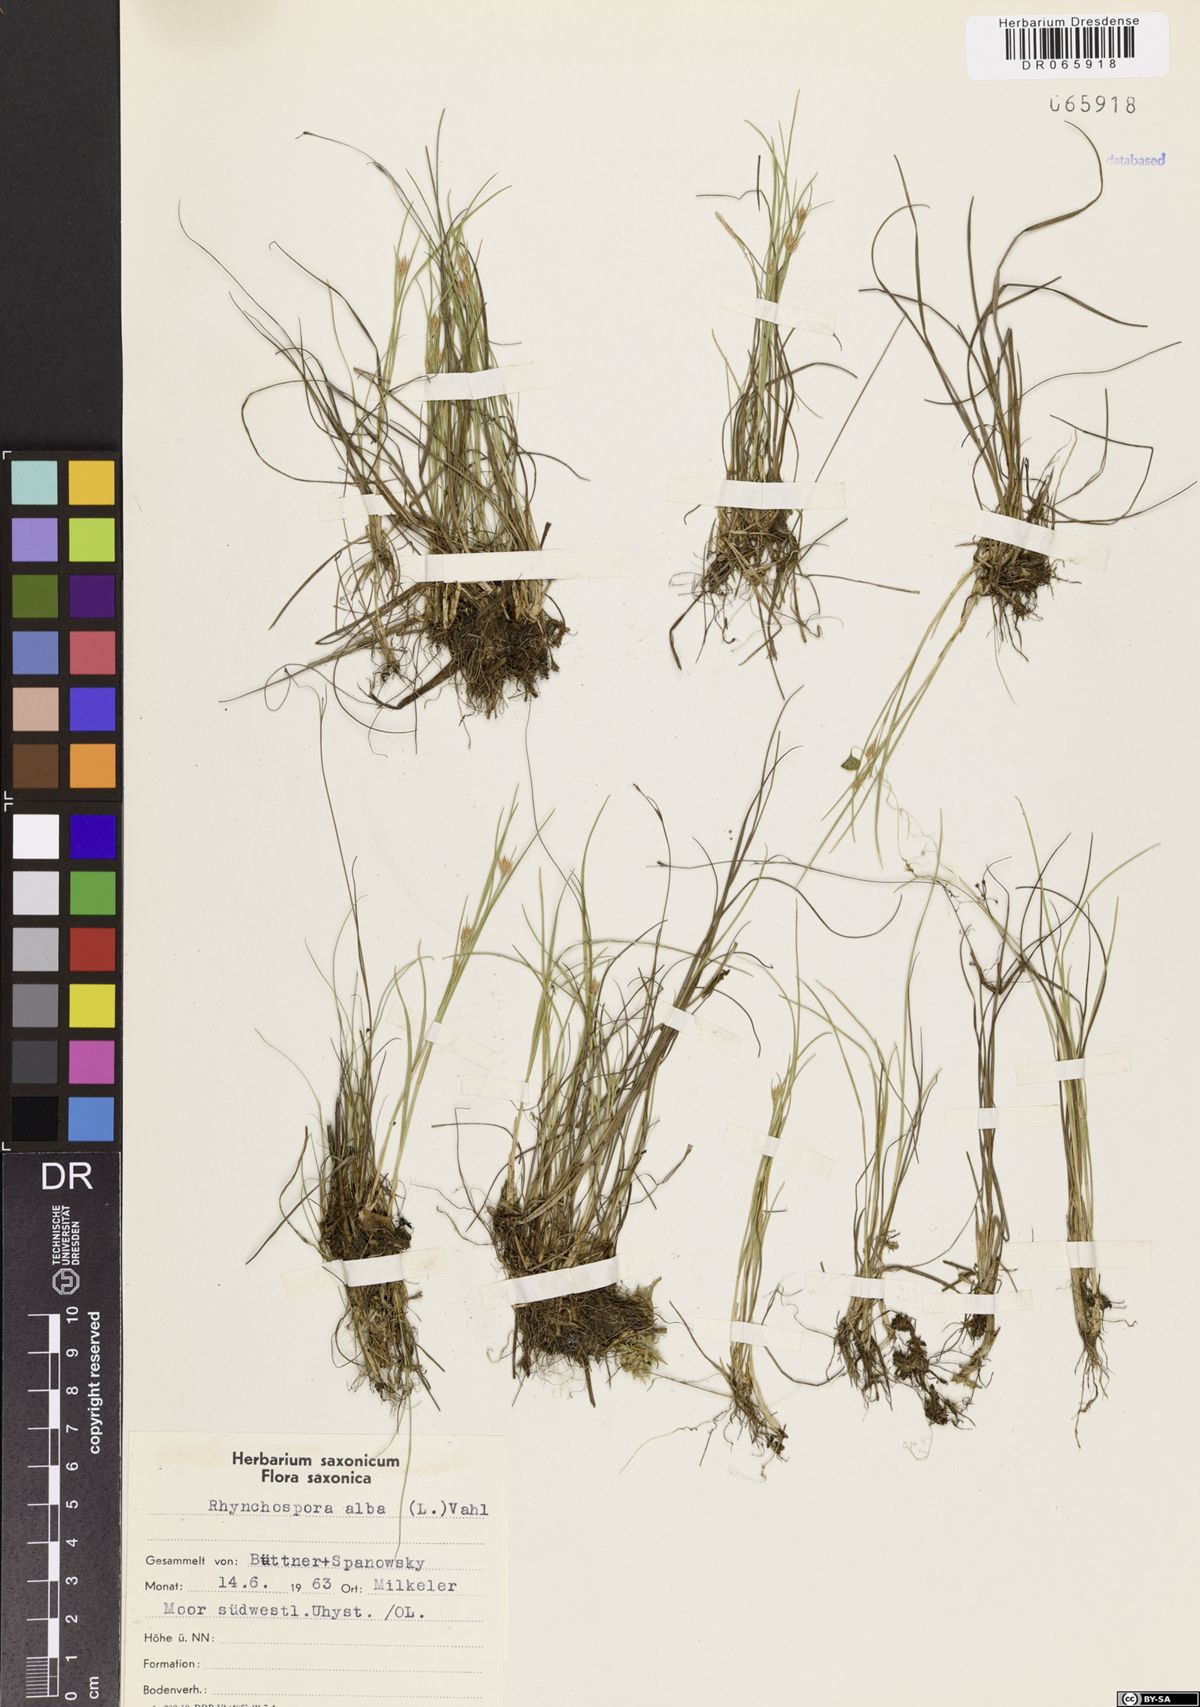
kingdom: Plantae
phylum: Tracheophyta
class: Liliopsida
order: Poales
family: Cyperaceae
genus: Rhynchospora
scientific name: Rhynchospora alba
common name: White beak-sedge
